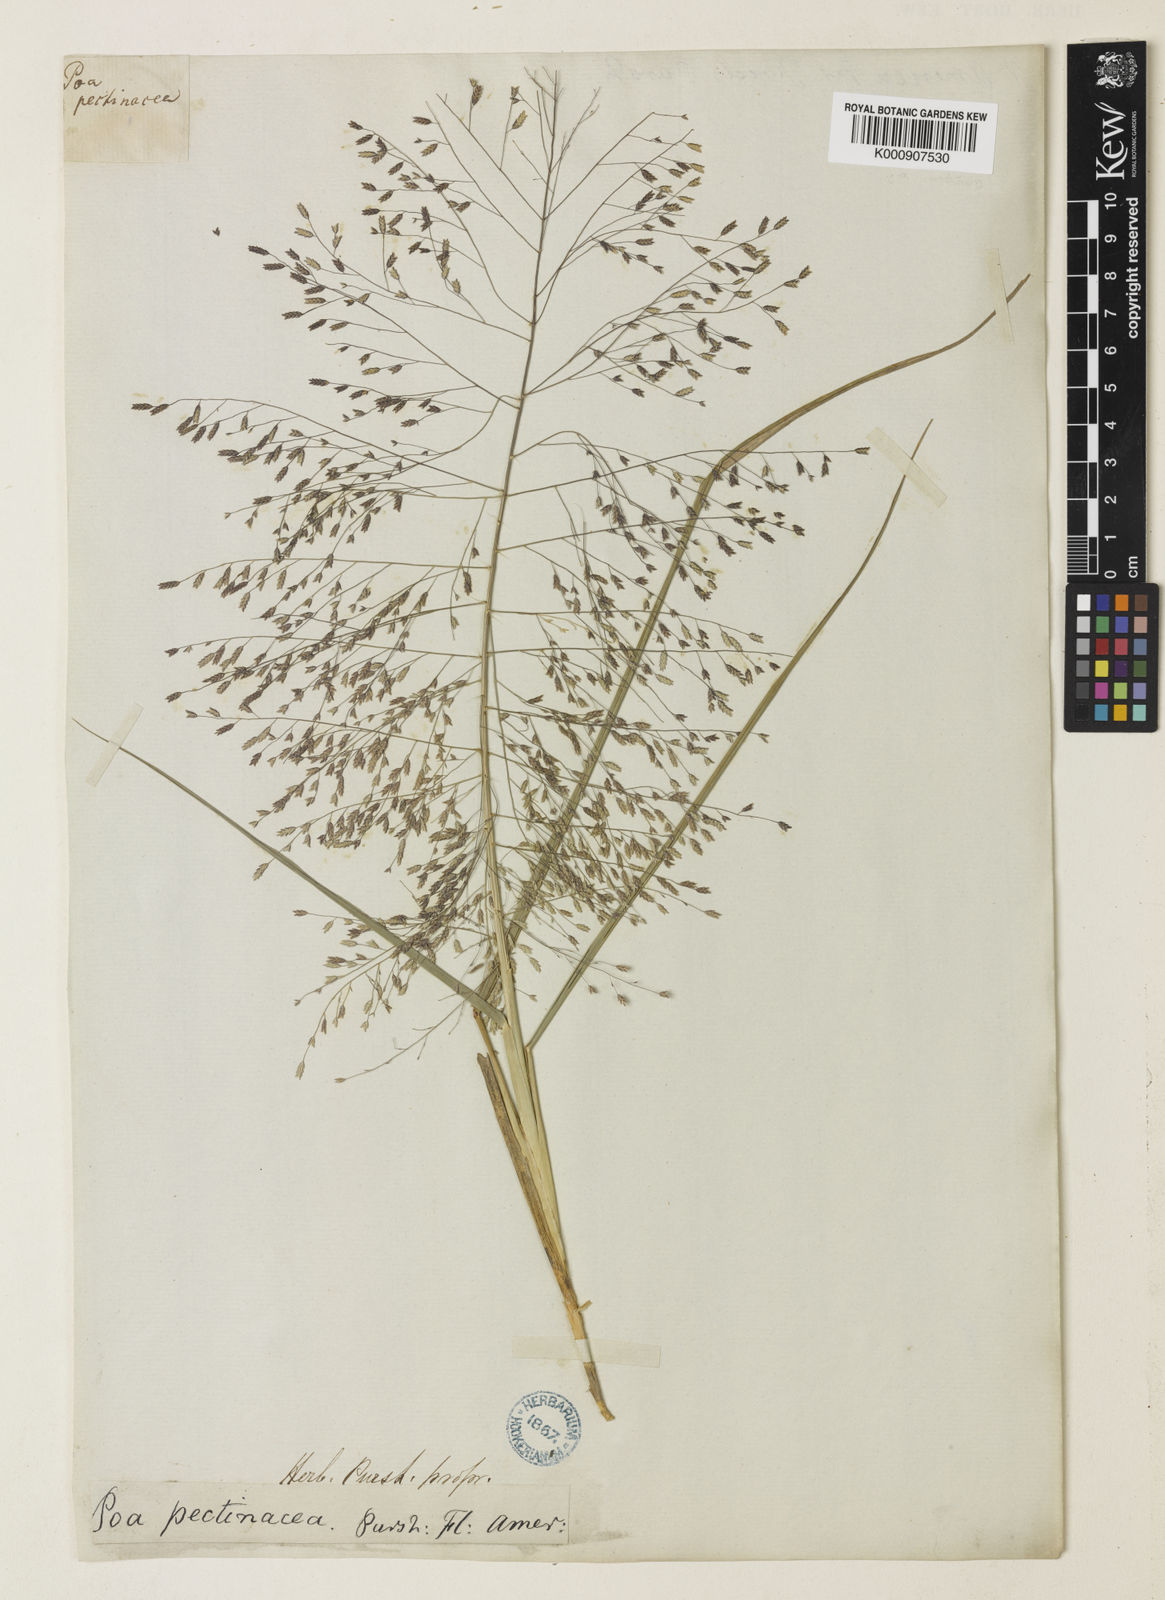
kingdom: Plantae
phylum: Tracheophyta
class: Liliopsida
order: Poales
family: Poaceae
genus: Eragrostis
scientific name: Eragrostis spectabilis
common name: Petticoat-climber
